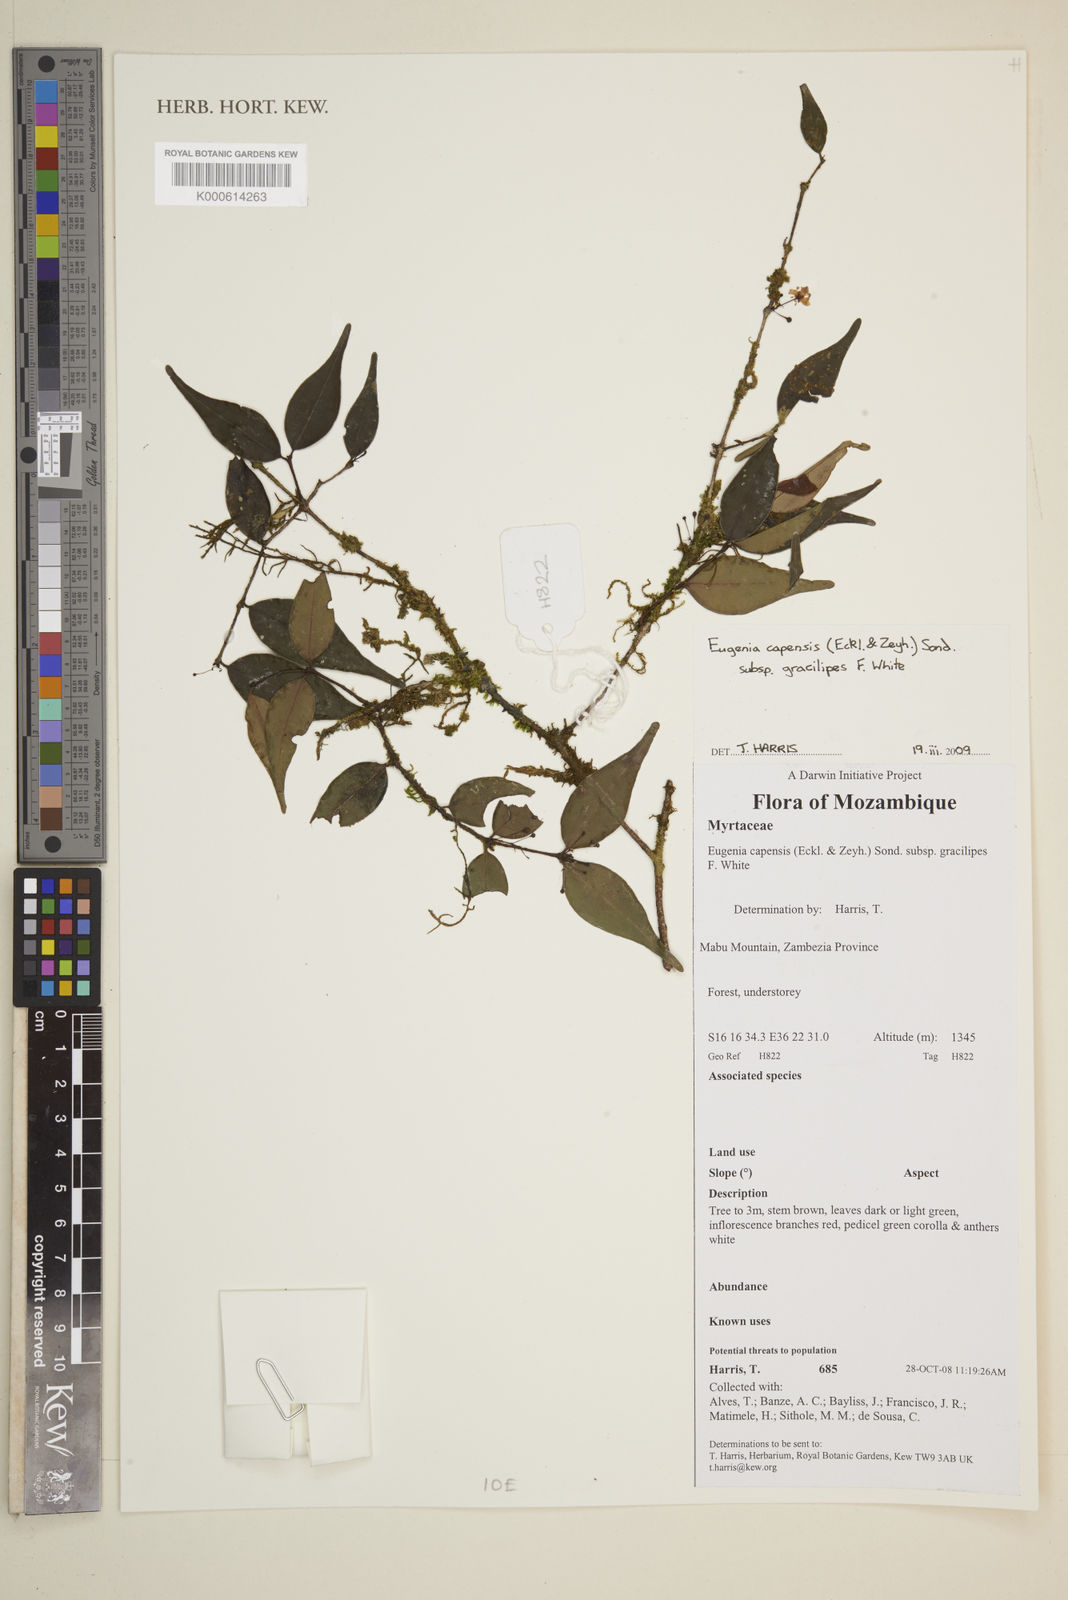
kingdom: Plantae
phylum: Tracheophyta
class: Magnoliopsida
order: Myrtales
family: Myrtaceae
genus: Eugenia
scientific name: Eugenia capensis
